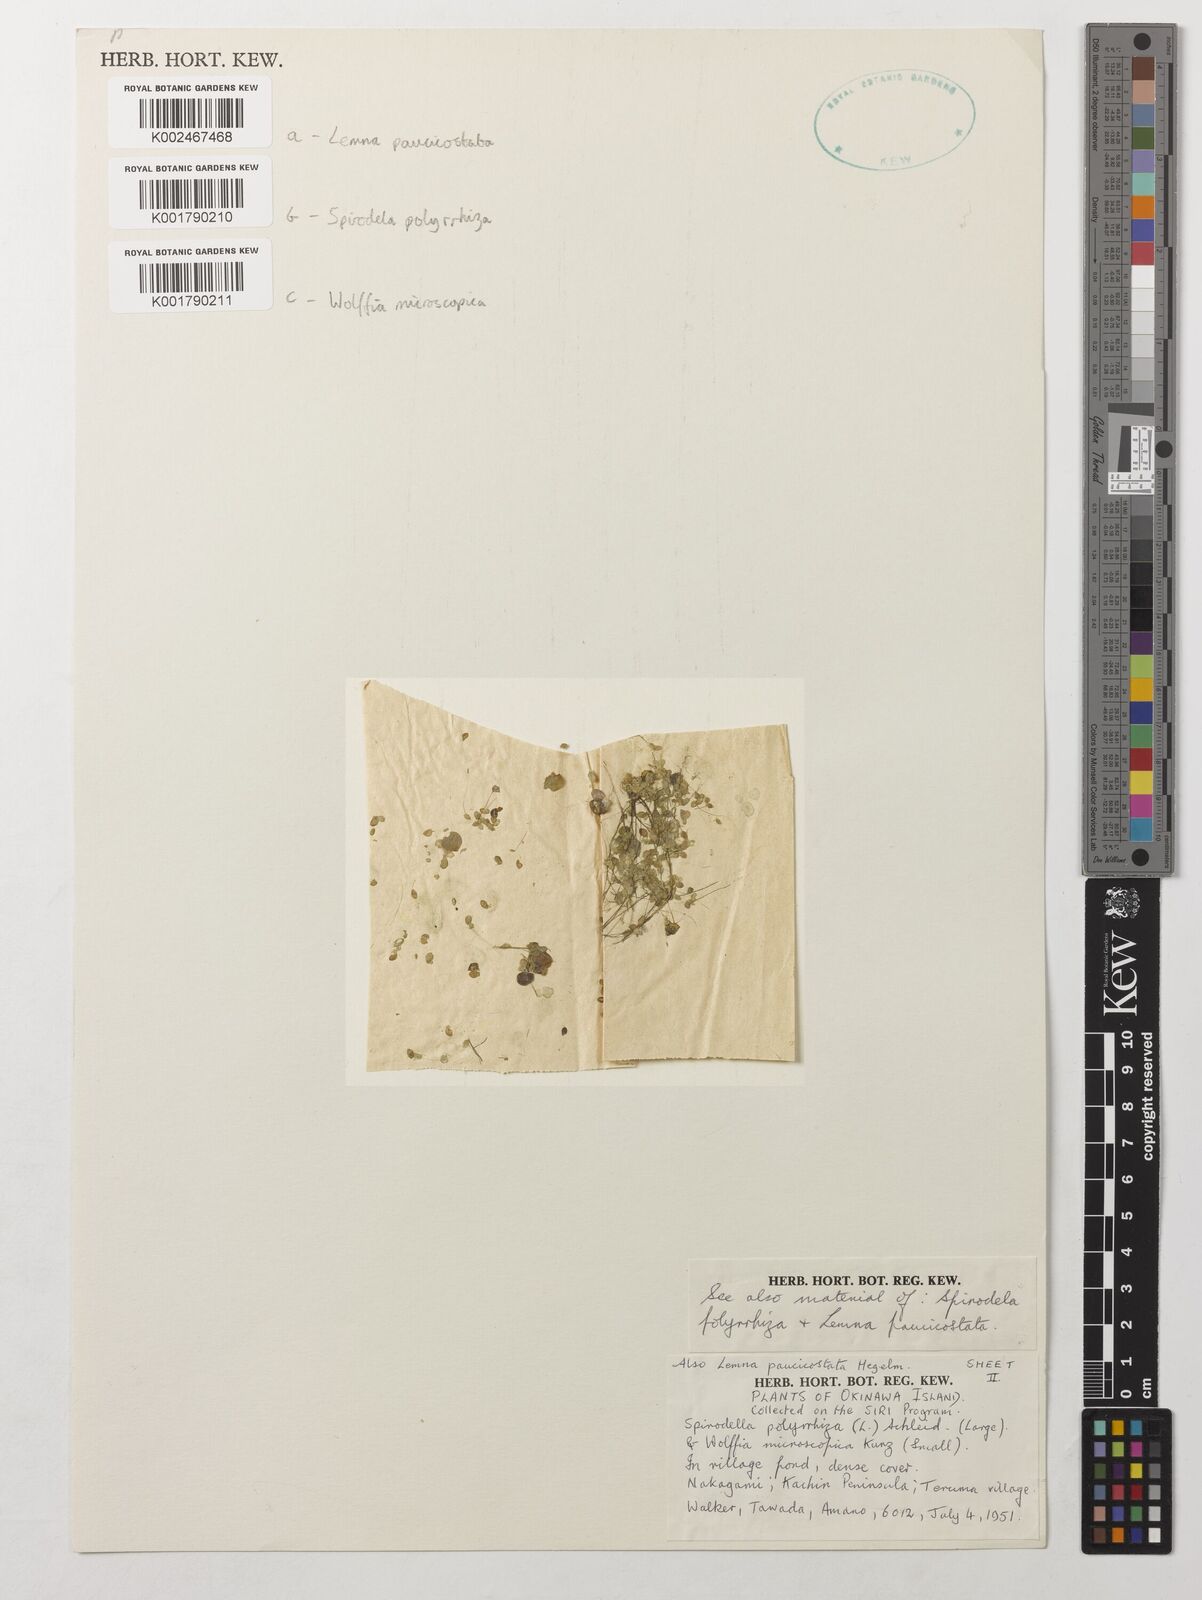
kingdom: Plantae
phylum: Tracheophyta
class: Liliopsida
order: Alismatales
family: Araceae
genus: Spirodela
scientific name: Spirodela polyrhiza
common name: Great duckweed
